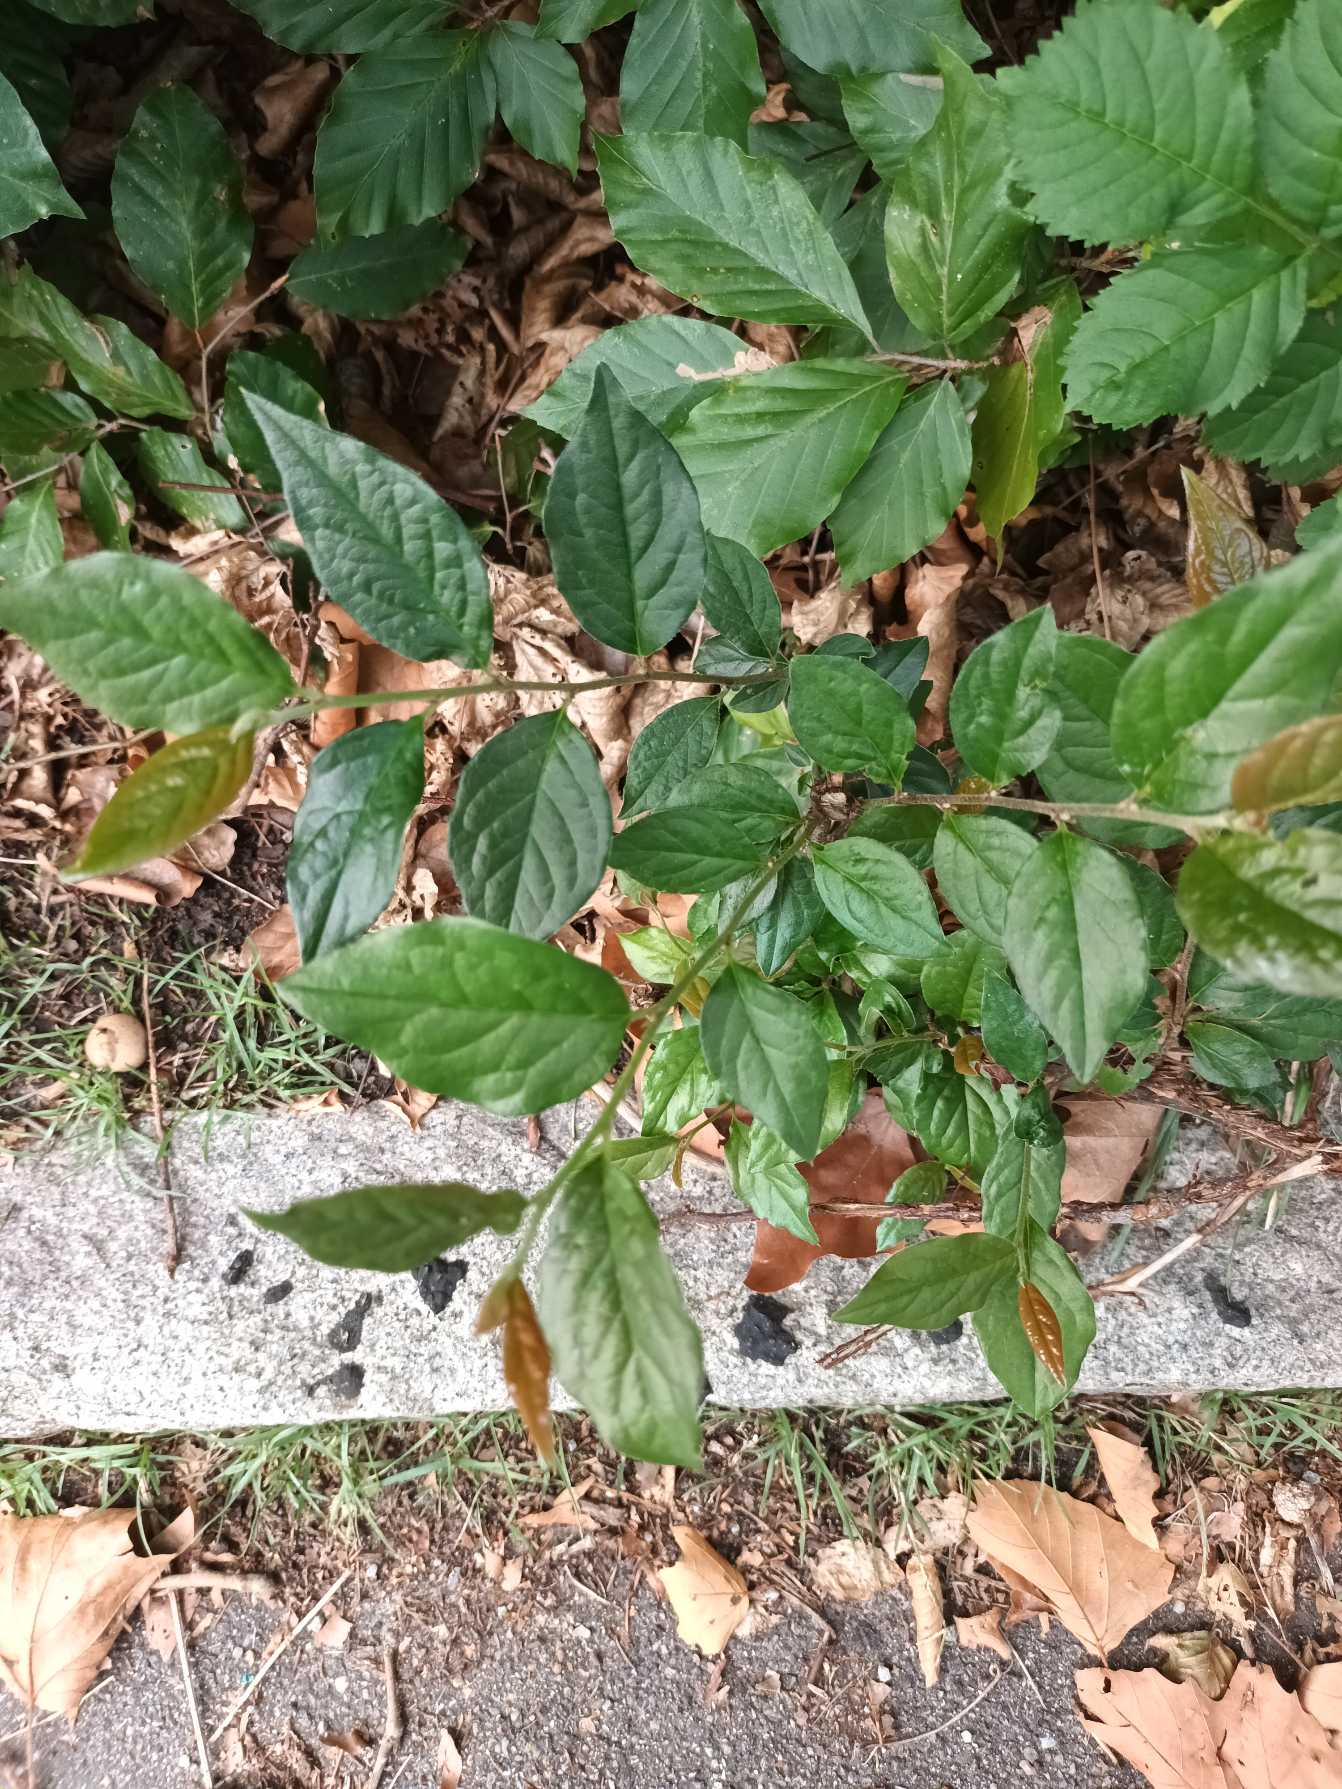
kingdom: Plantae
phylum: Tracheophyta
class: Magnoliopsida
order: Rosales
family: Rosaceae
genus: Cotoneaster
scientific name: Cotoneaster bullatus
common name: Buklet dværgmispel
